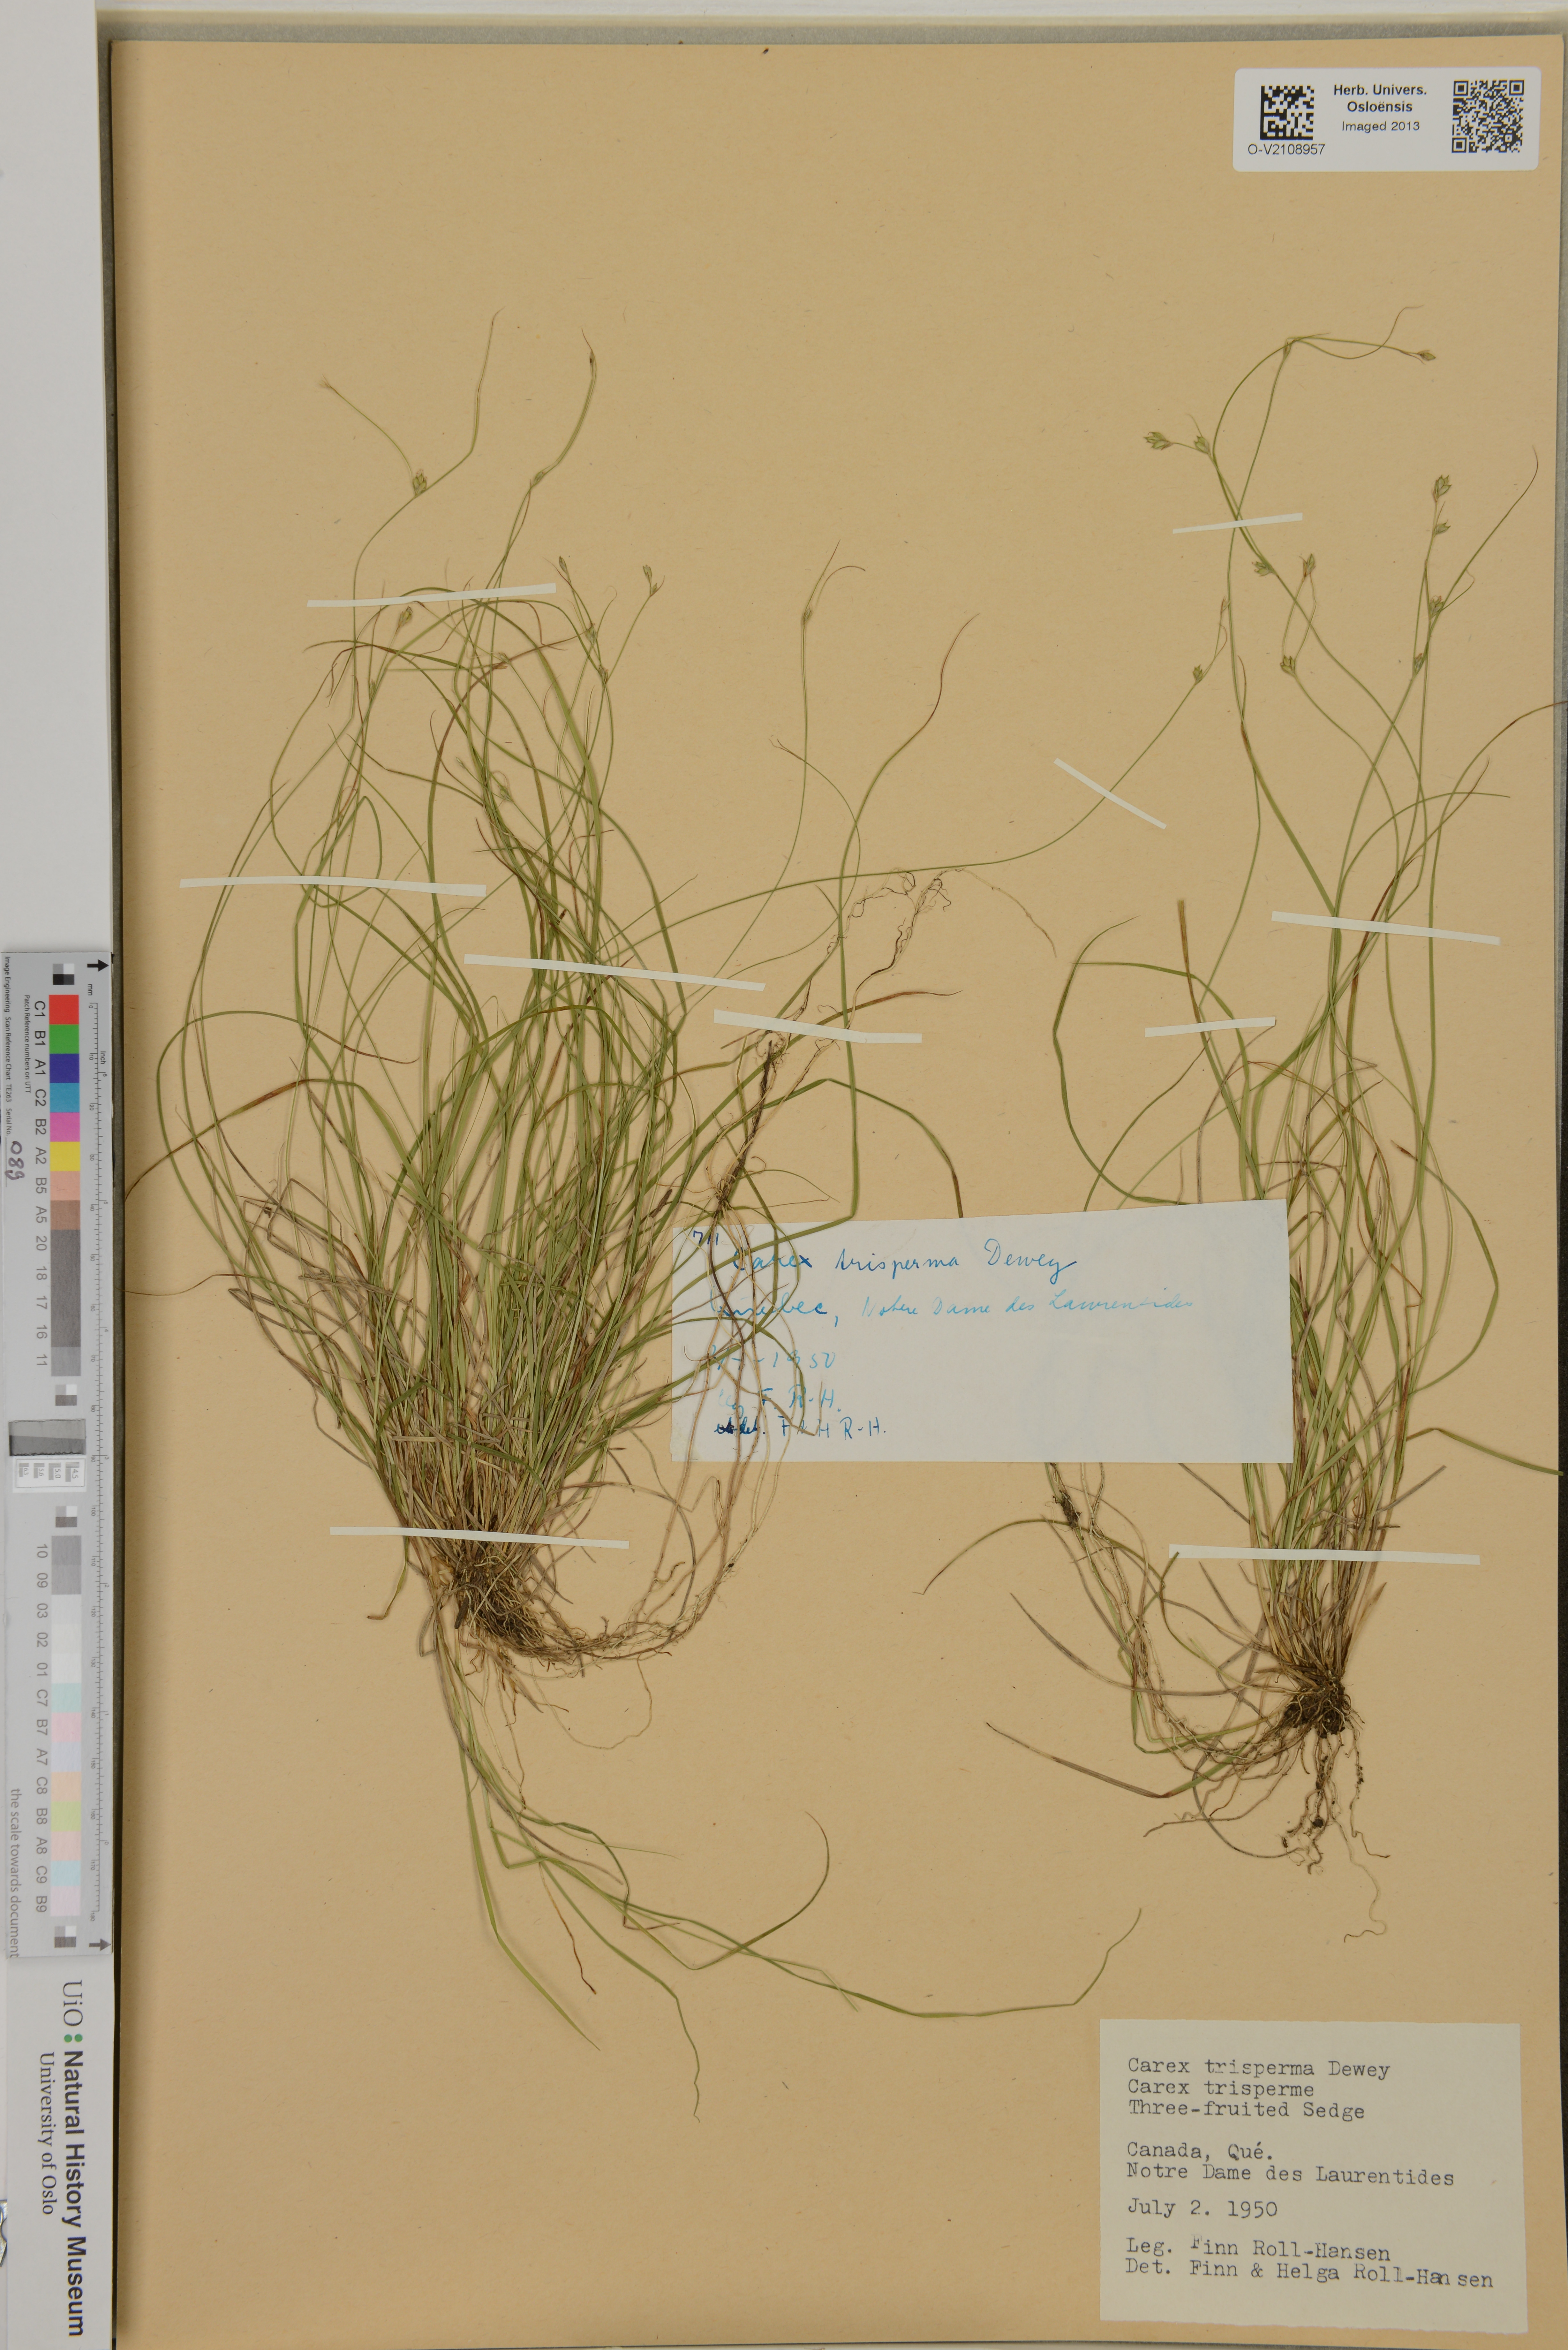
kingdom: Plantae
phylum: Tracheophyta
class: Liliopsida
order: Poales
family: Cyperaceae
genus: Carex
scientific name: Carex trisperma
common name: Three-seeded sedge
